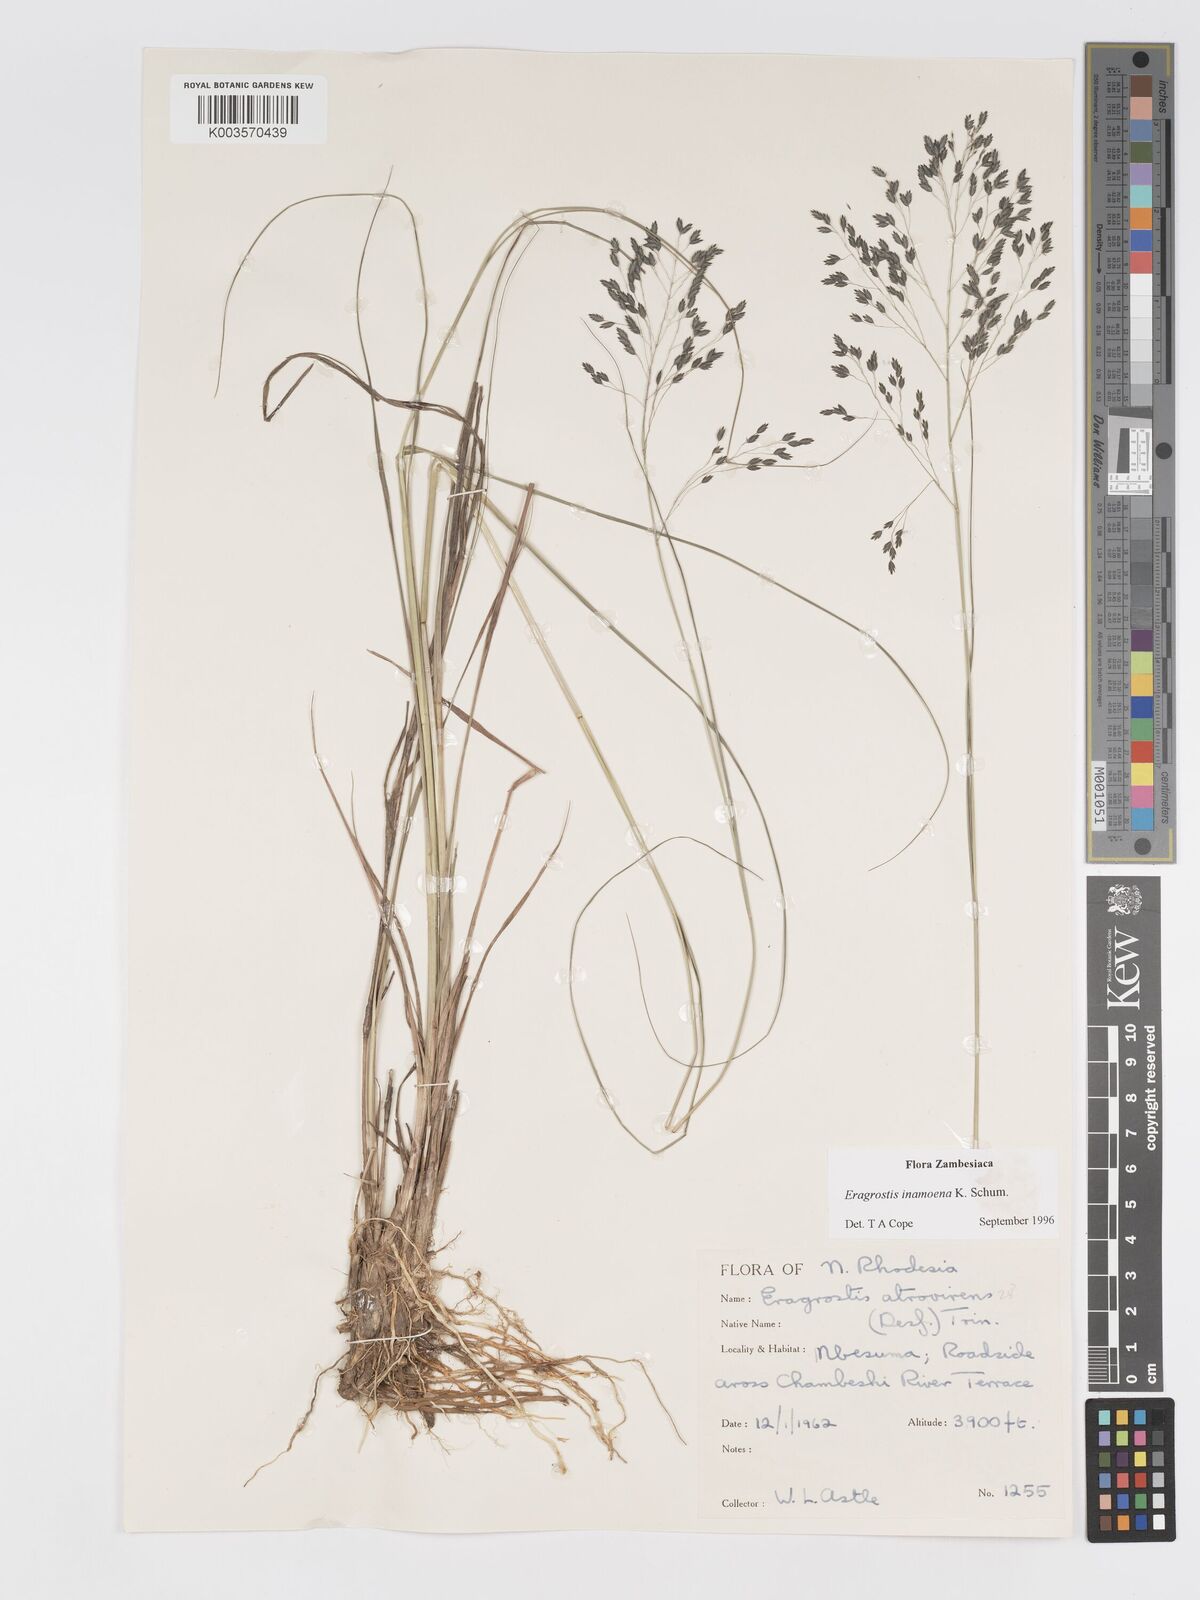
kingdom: Plantae
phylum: Tracheophyta
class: Liliopsida
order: Poales
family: Poaceae
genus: Eragrostis
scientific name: Eragrostis inamoena
